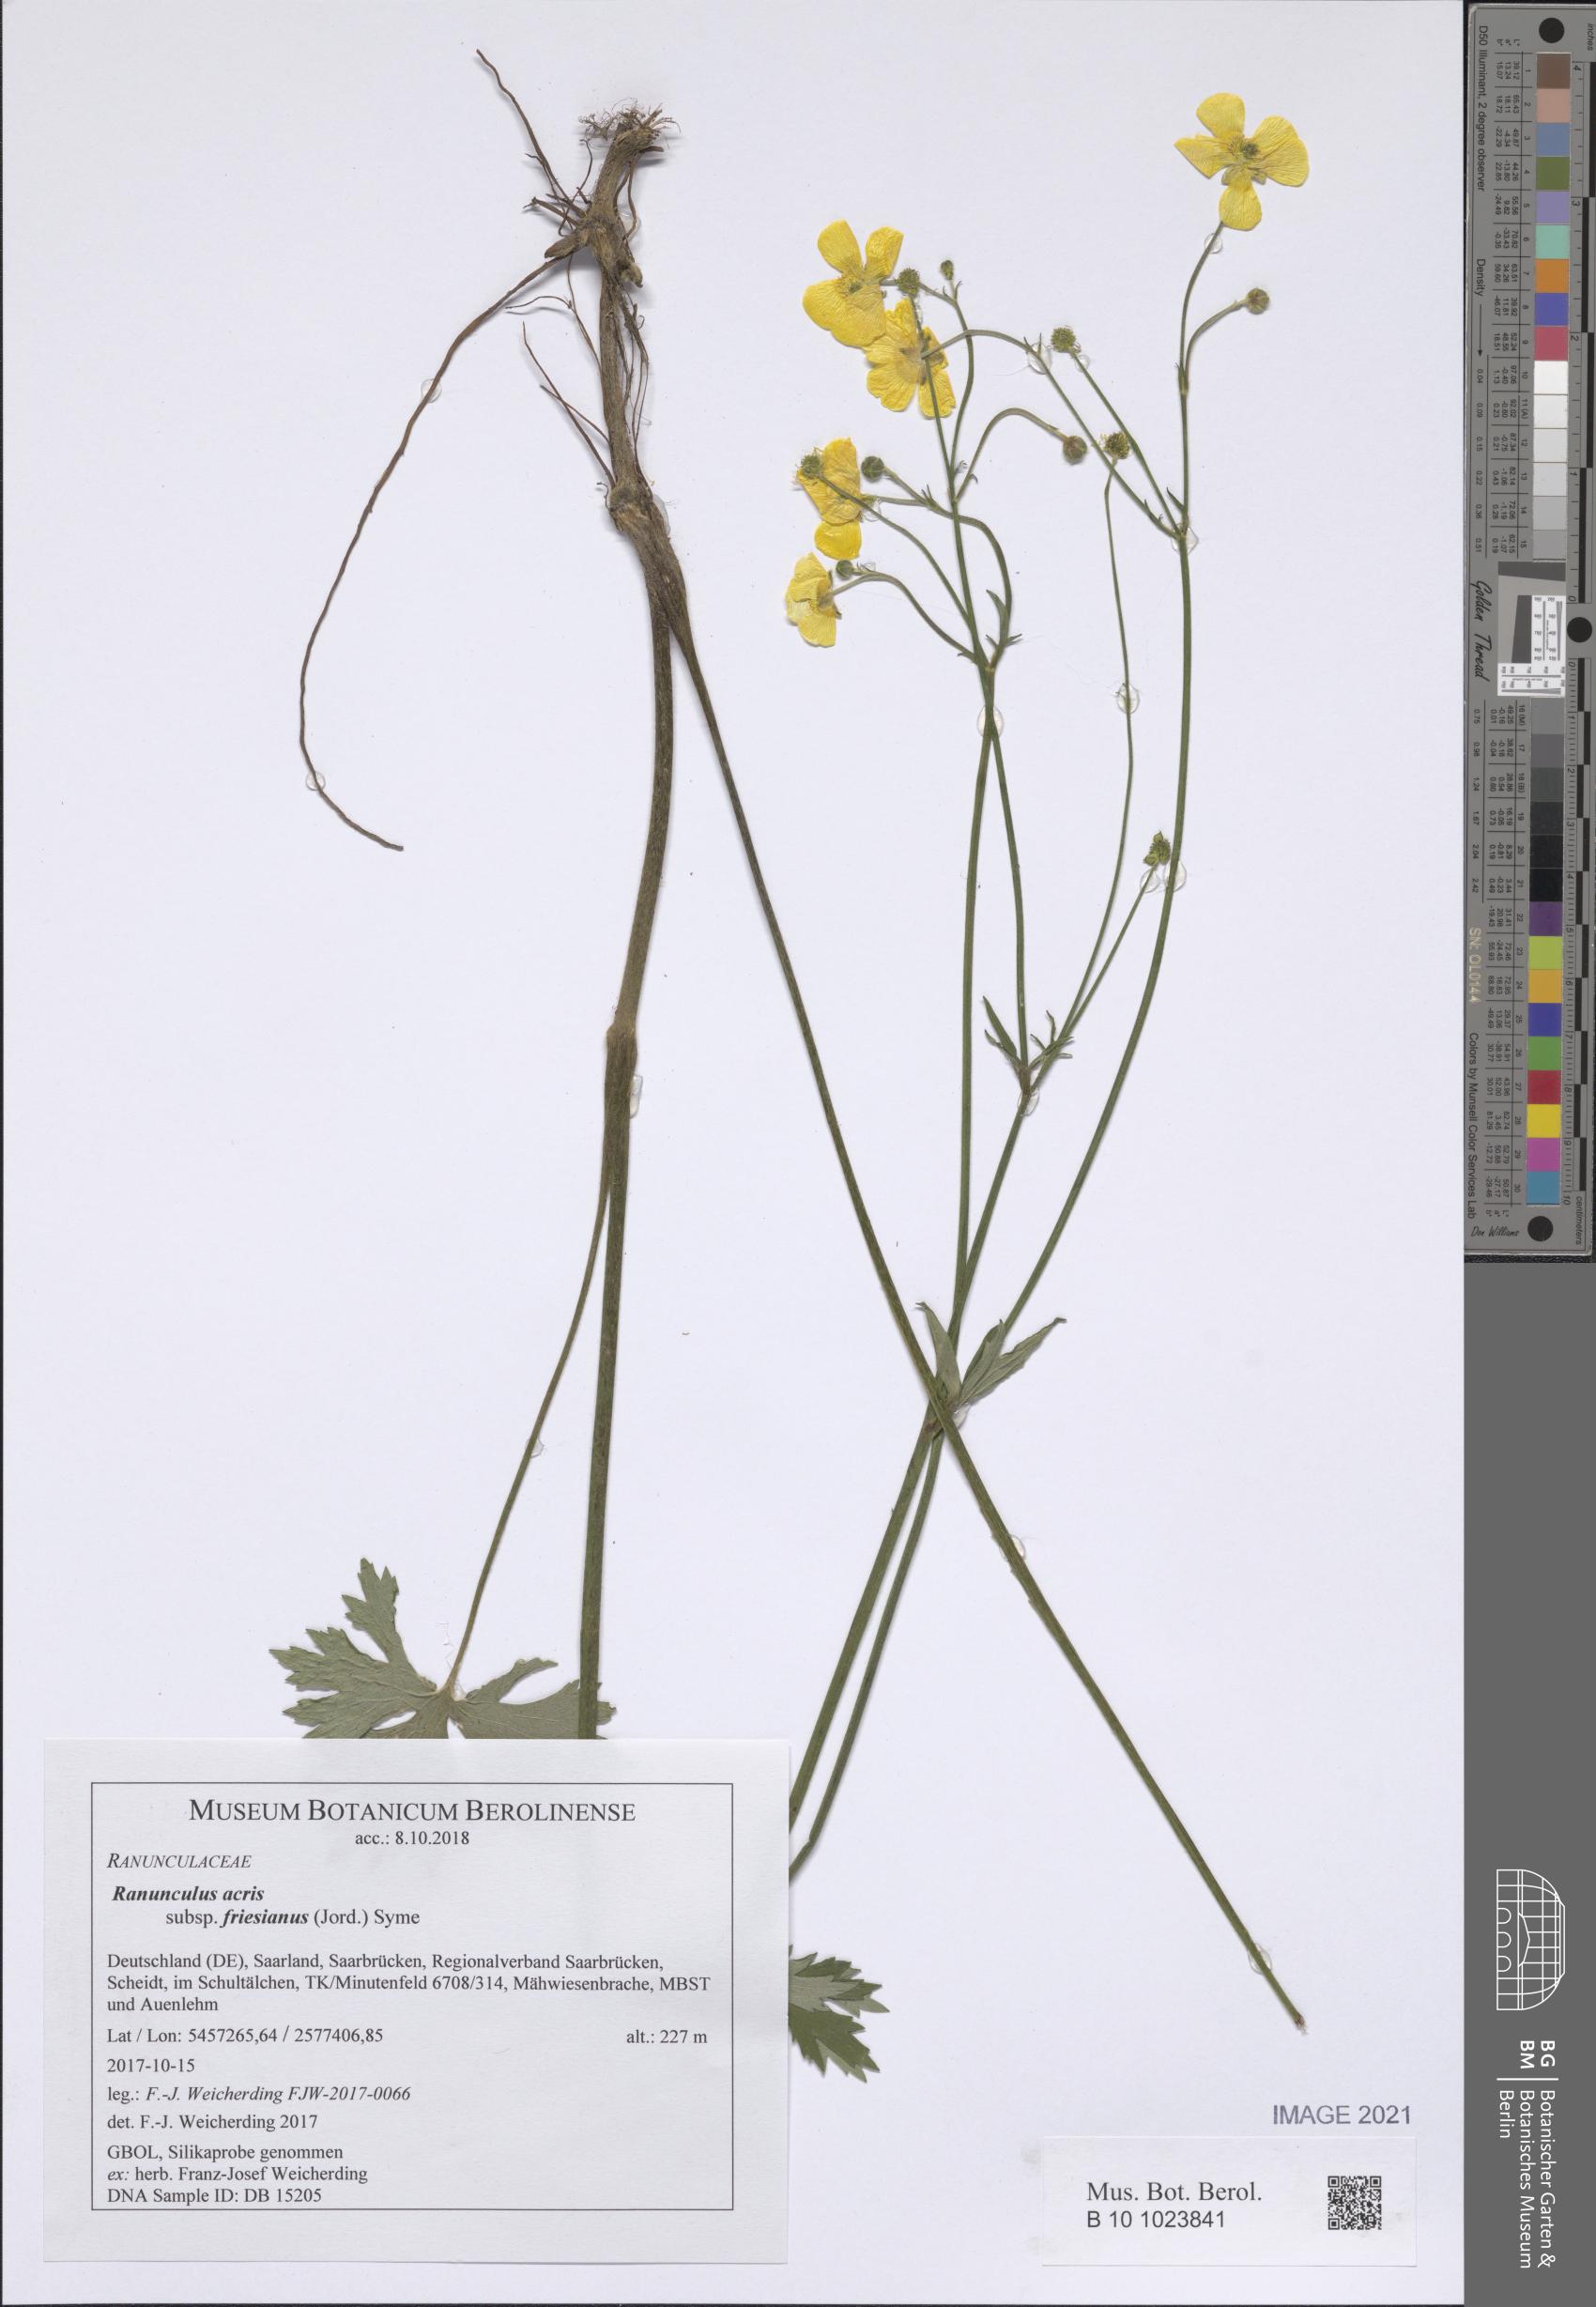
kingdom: Plantae
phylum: Tracheophyta
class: Magnoliopsida
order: Ranunculales
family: Ranunculaceae
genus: Ranunculus
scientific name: Ranunculus acris
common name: Meadow buttercup
